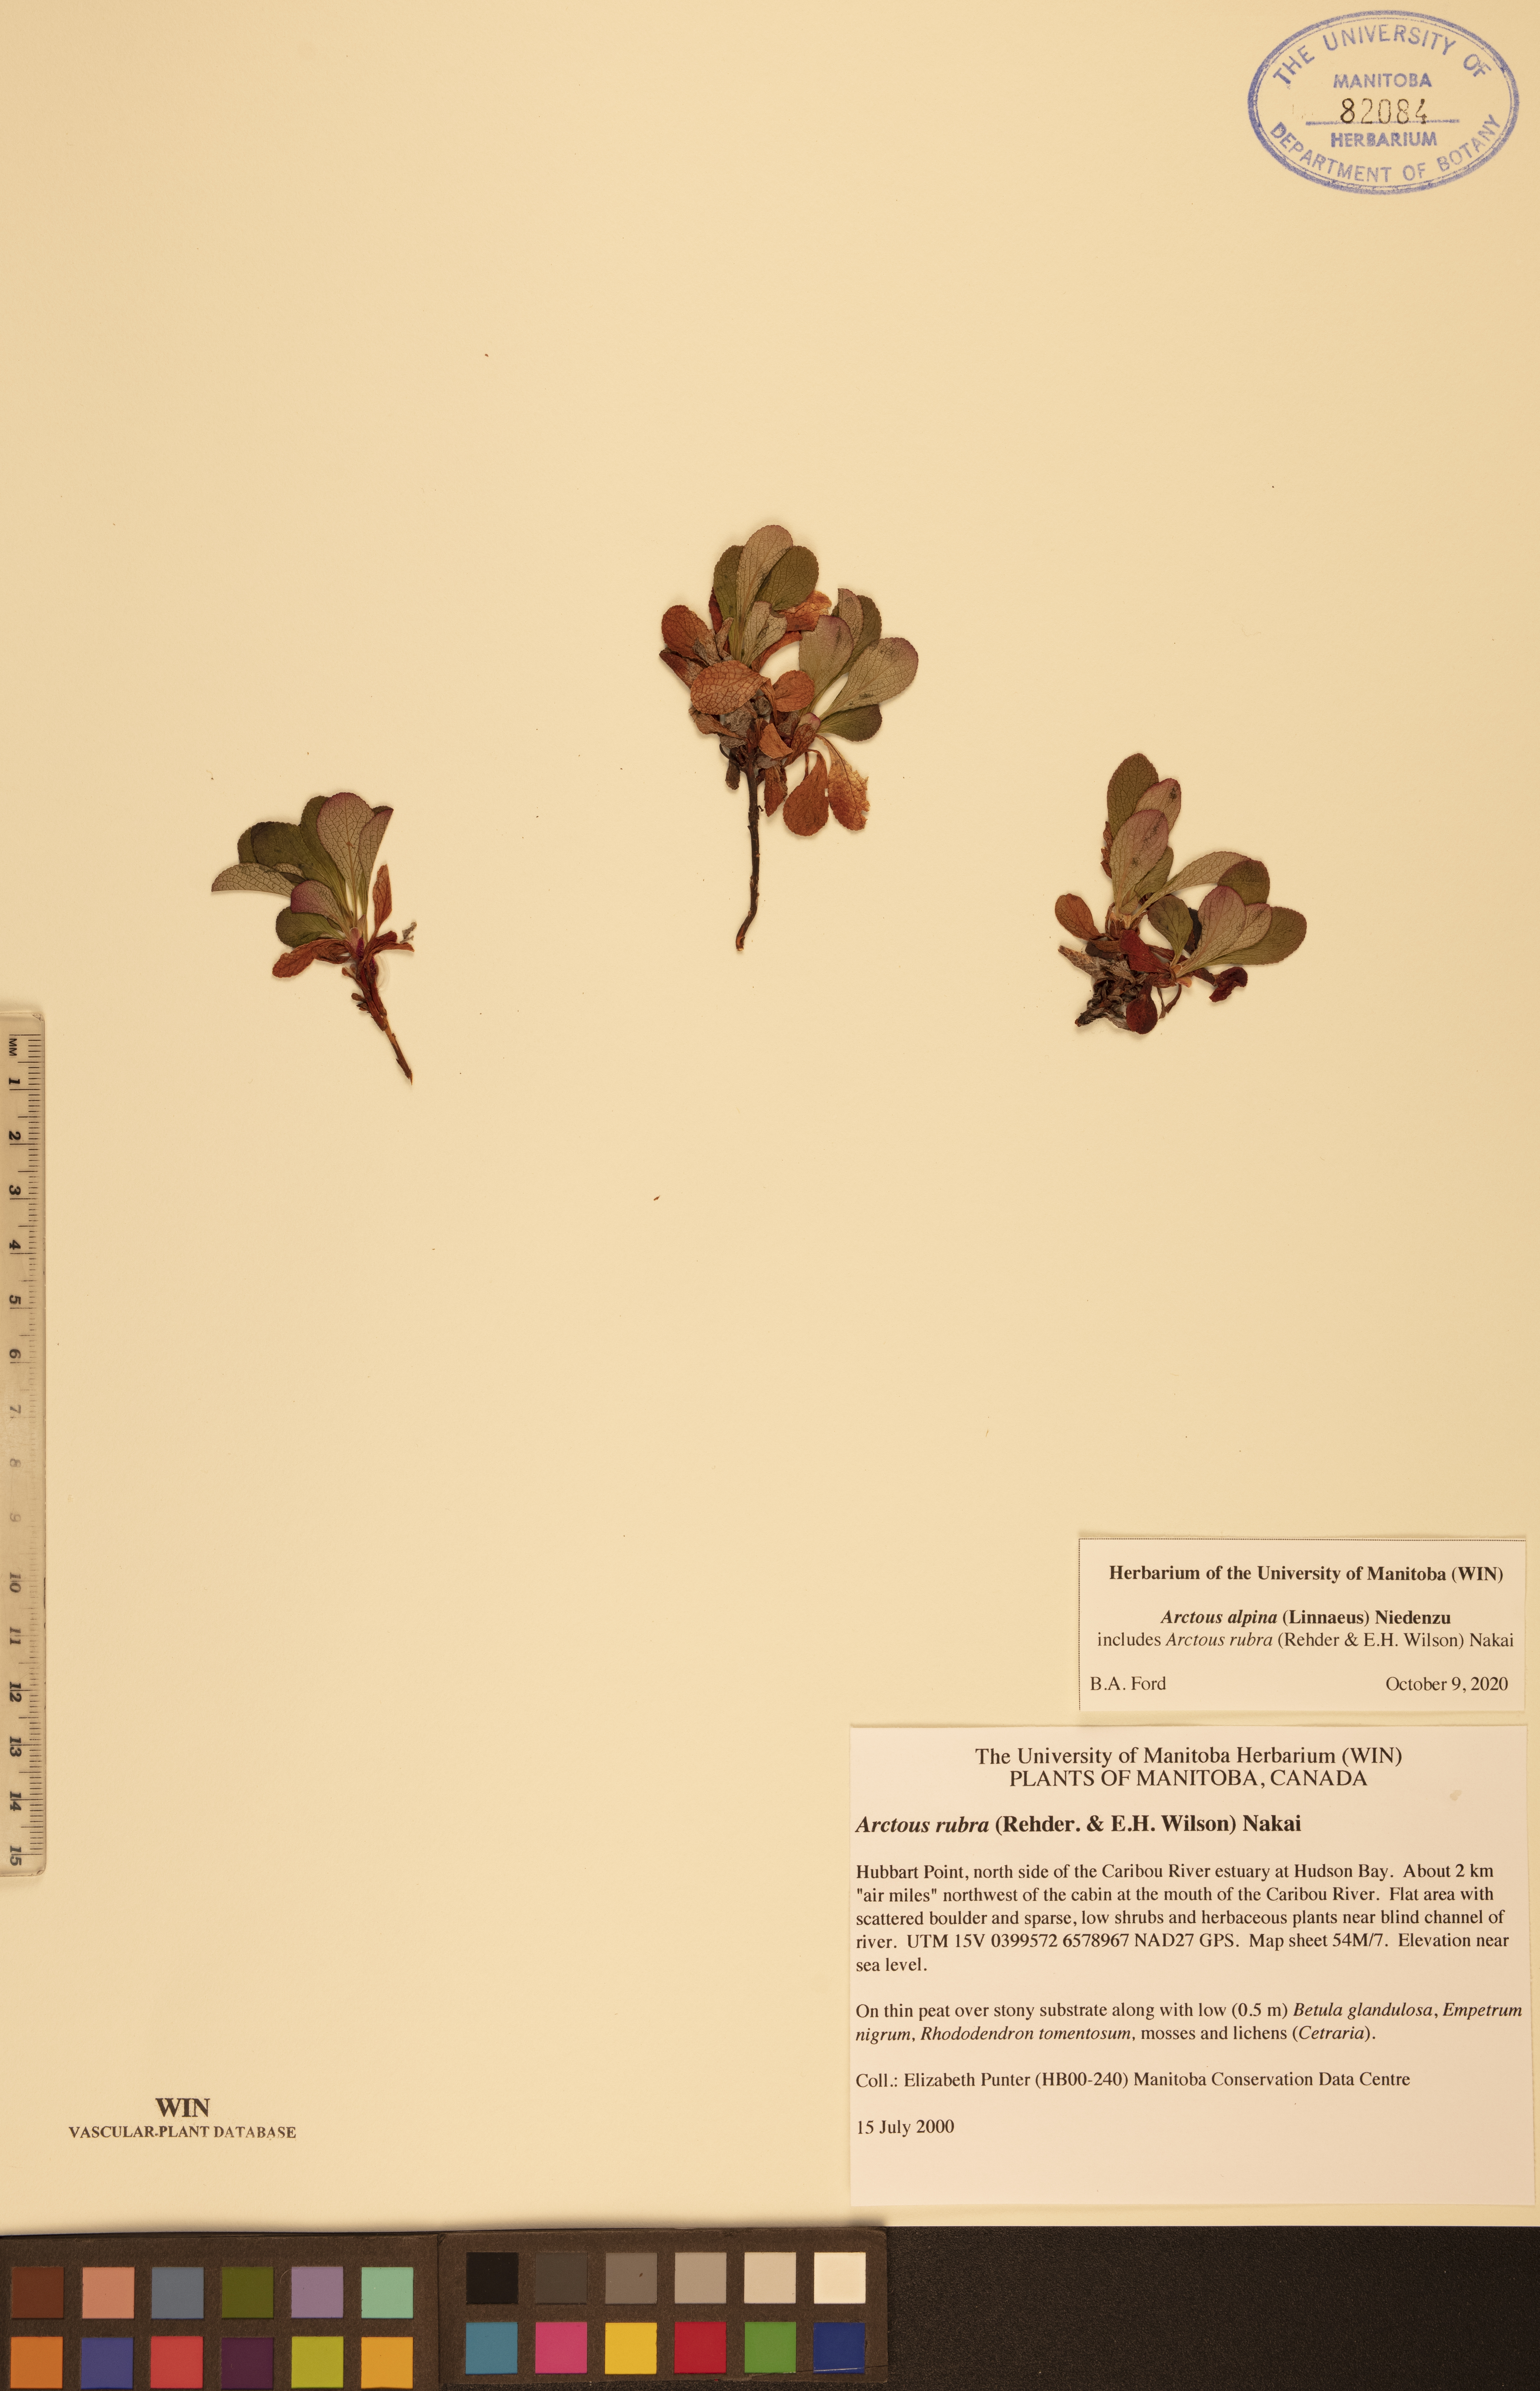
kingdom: Plantae
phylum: Tracheophyta
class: Magnoliopsida
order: Ericales
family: Ericaceae
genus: Arctostaphylos
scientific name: Arctostaphylos alpinus
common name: Alpine bearberry
